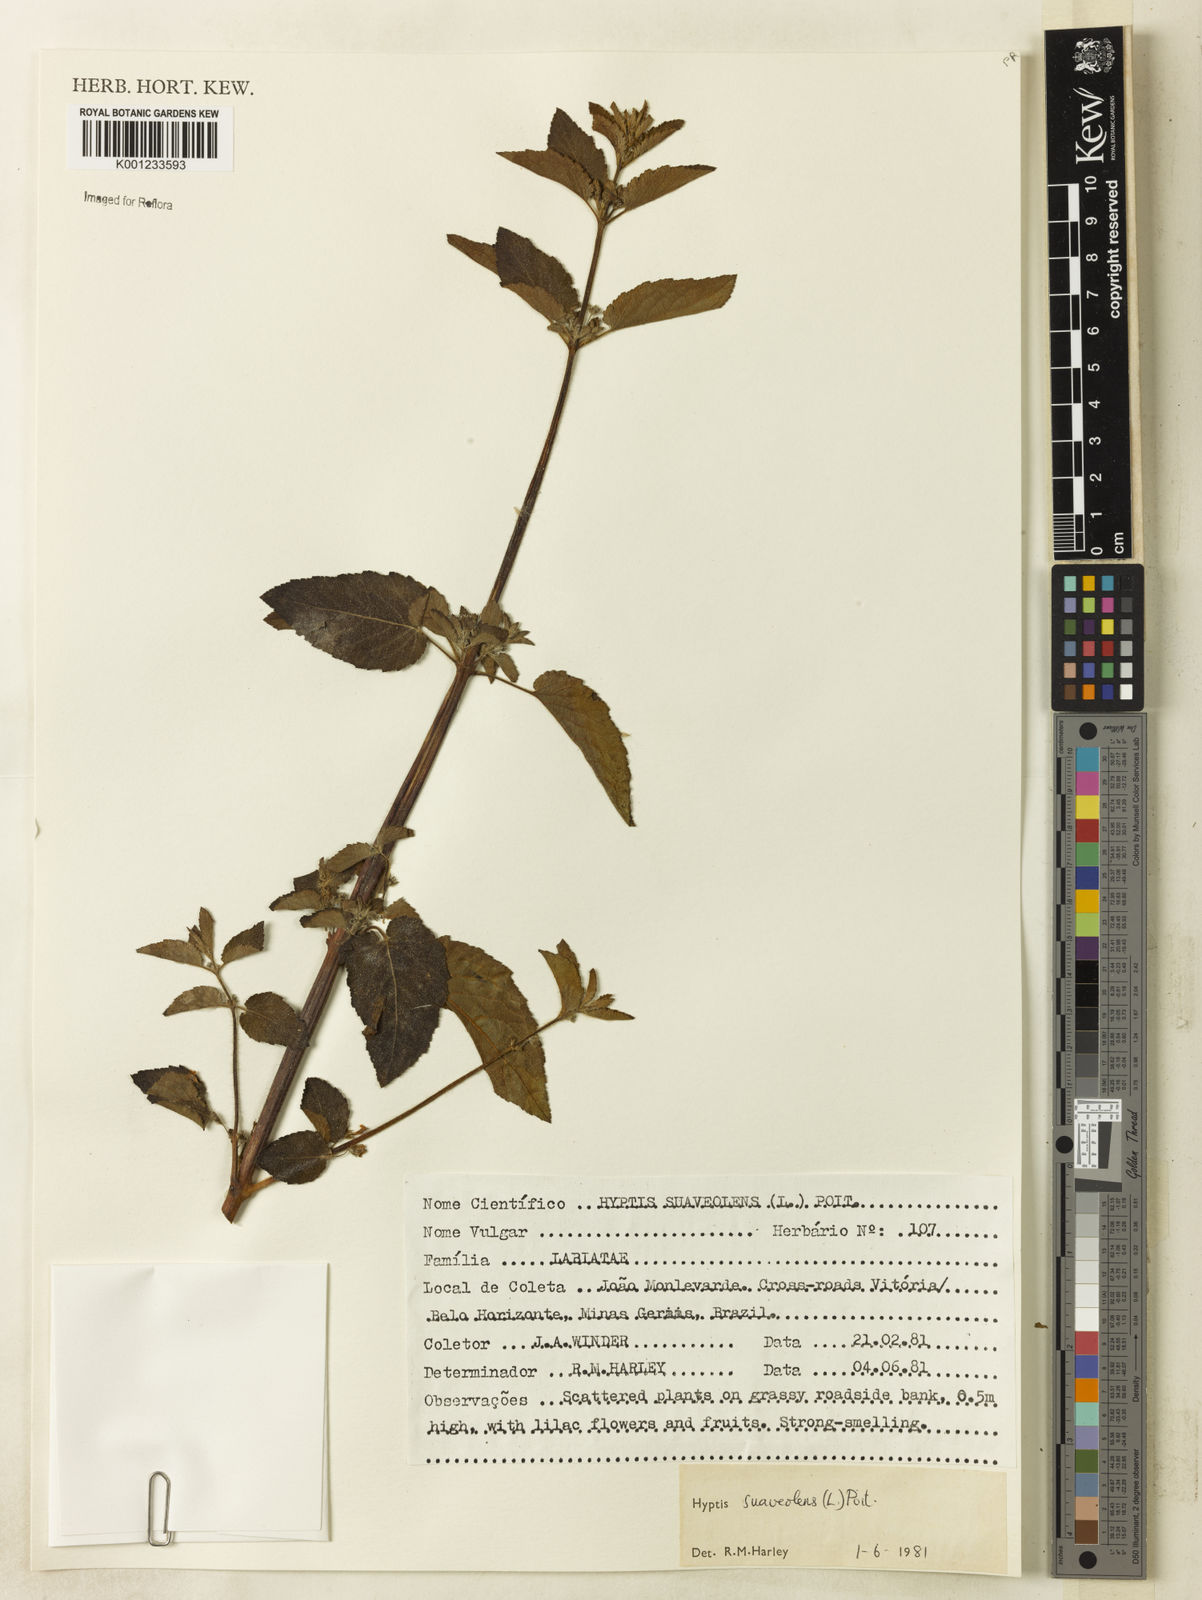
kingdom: Plantae
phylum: Tracheophyta
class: Magnoliopsida
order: Lamiales
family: Lamiaceae
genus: Mesosphaerum
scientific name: Mesosphaerum suaveolens
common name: Pignut
